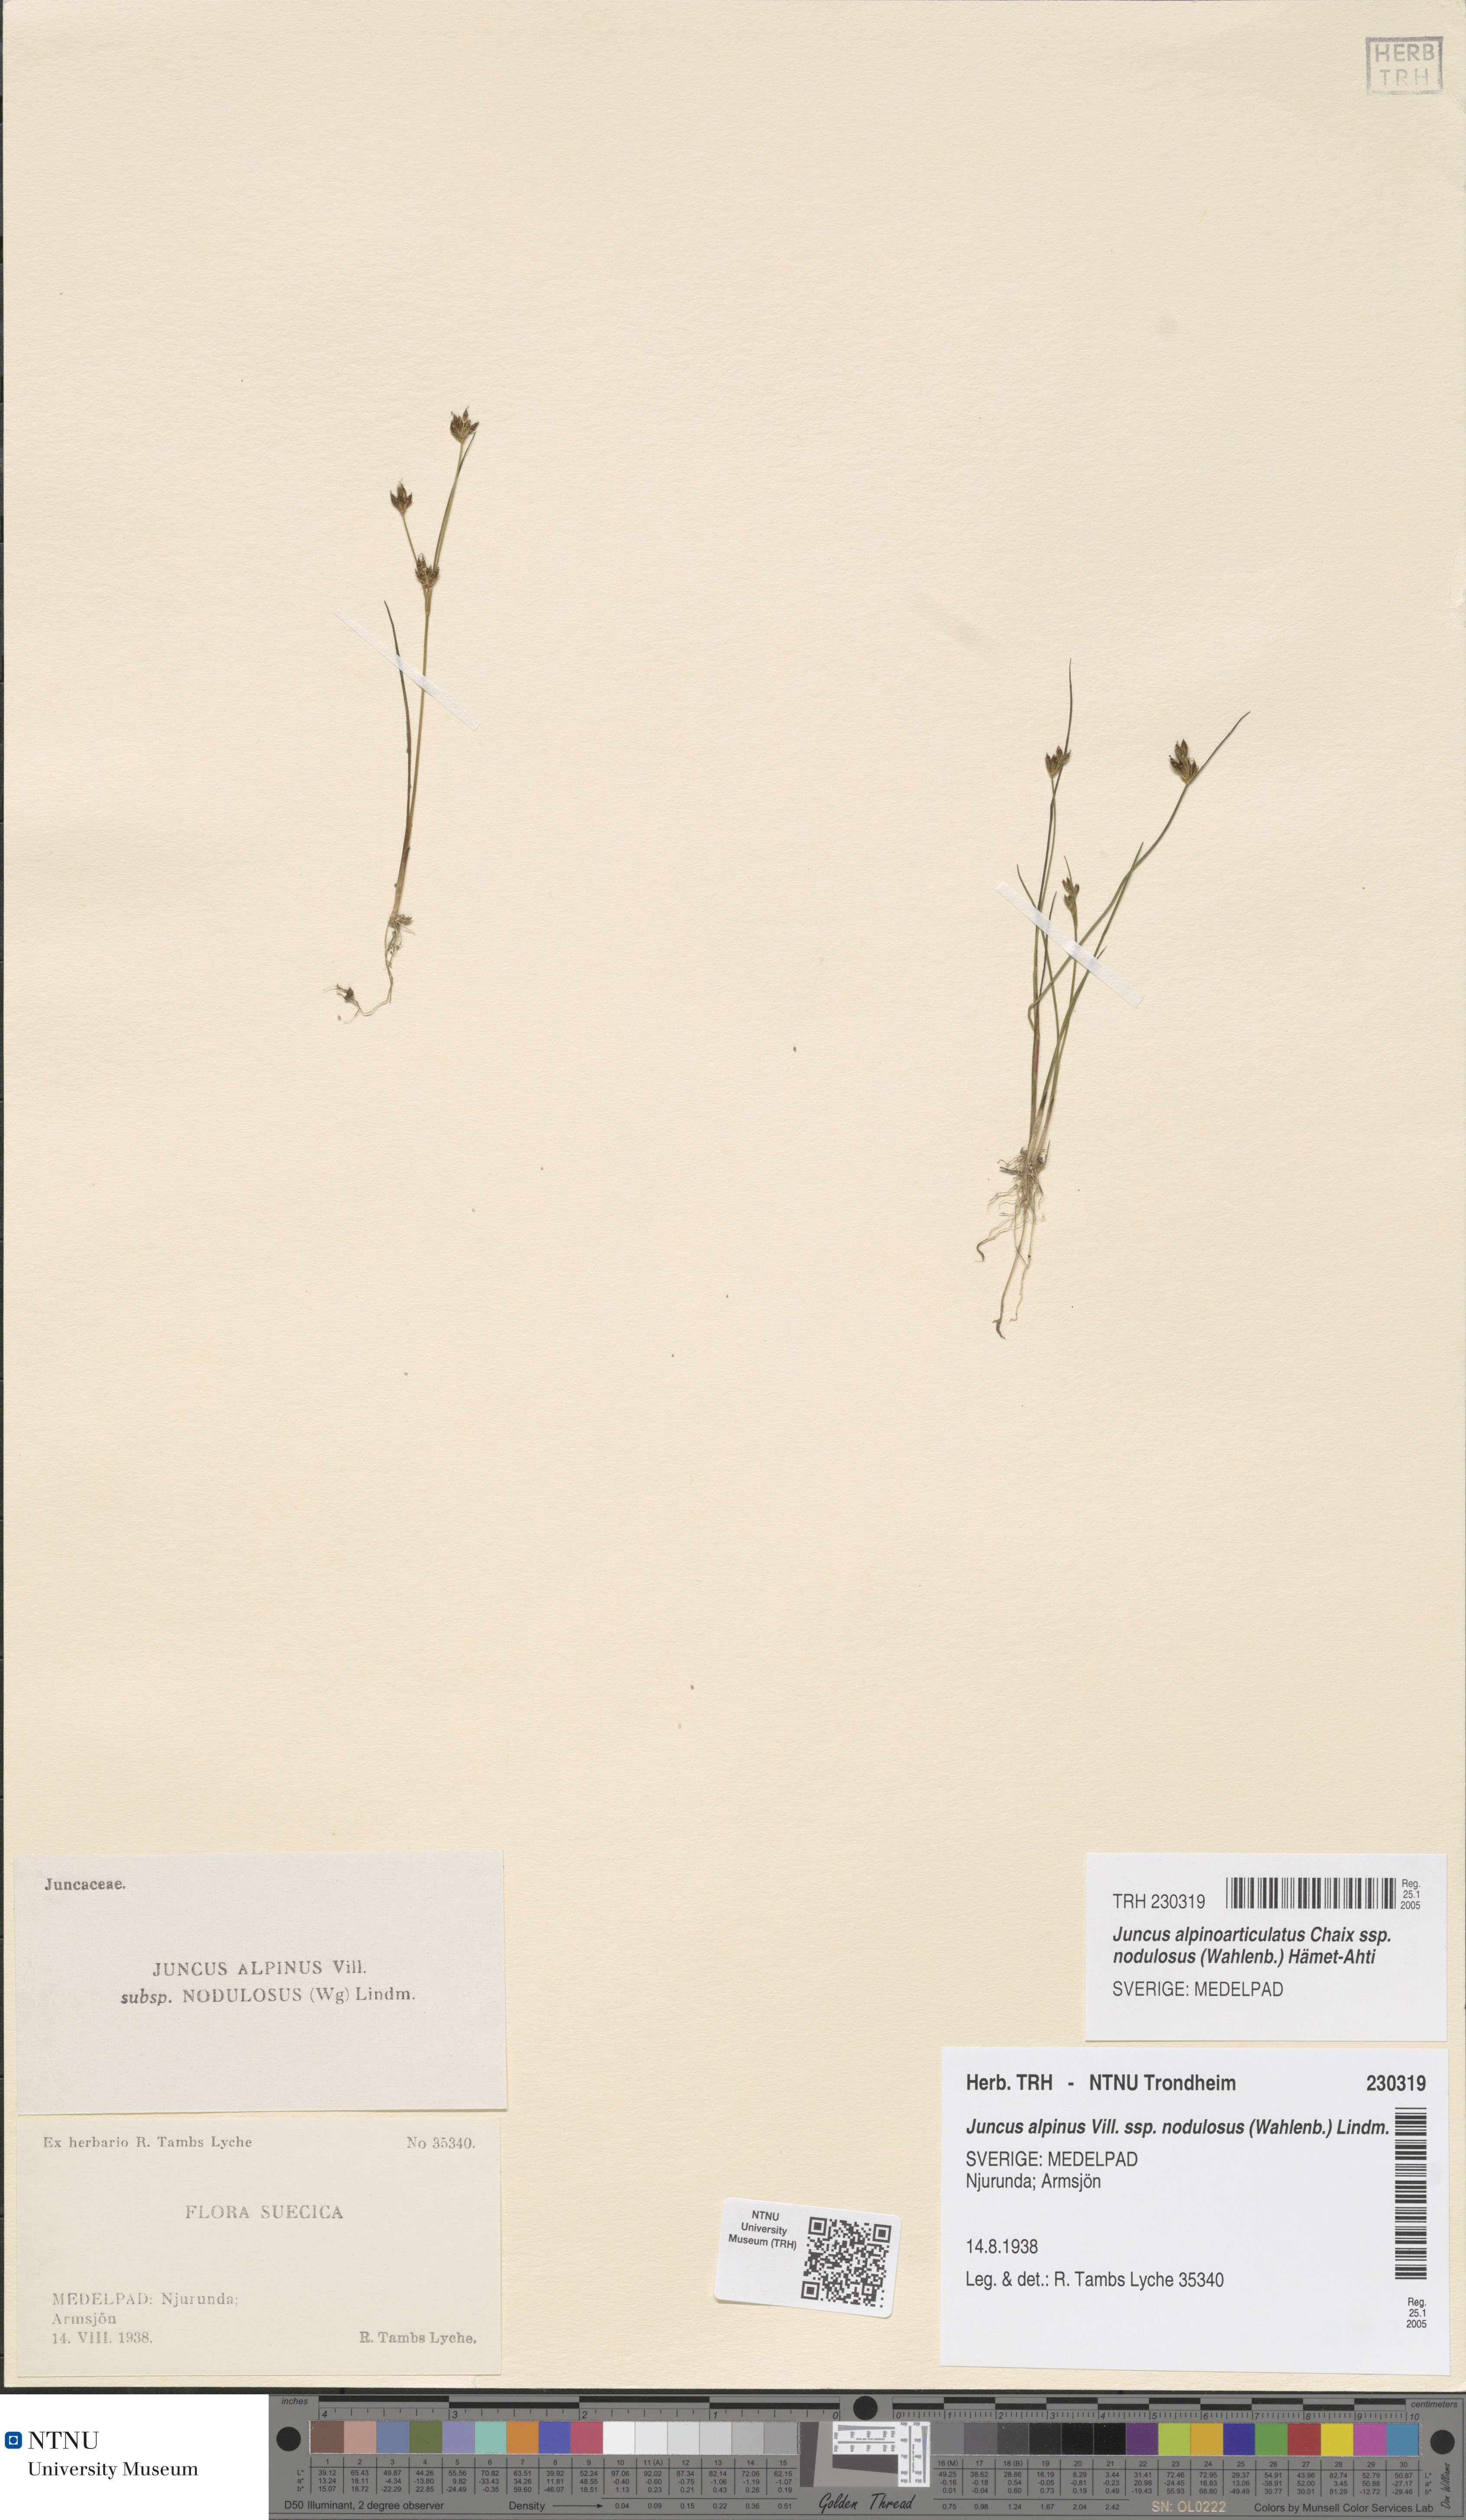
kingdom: Plantae
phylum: Tracheophyta
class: Liliopsida
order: Poales
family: Juncaceae
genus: Juncus
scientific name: Juncus alpinoarticulatus
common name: Alpine rush
